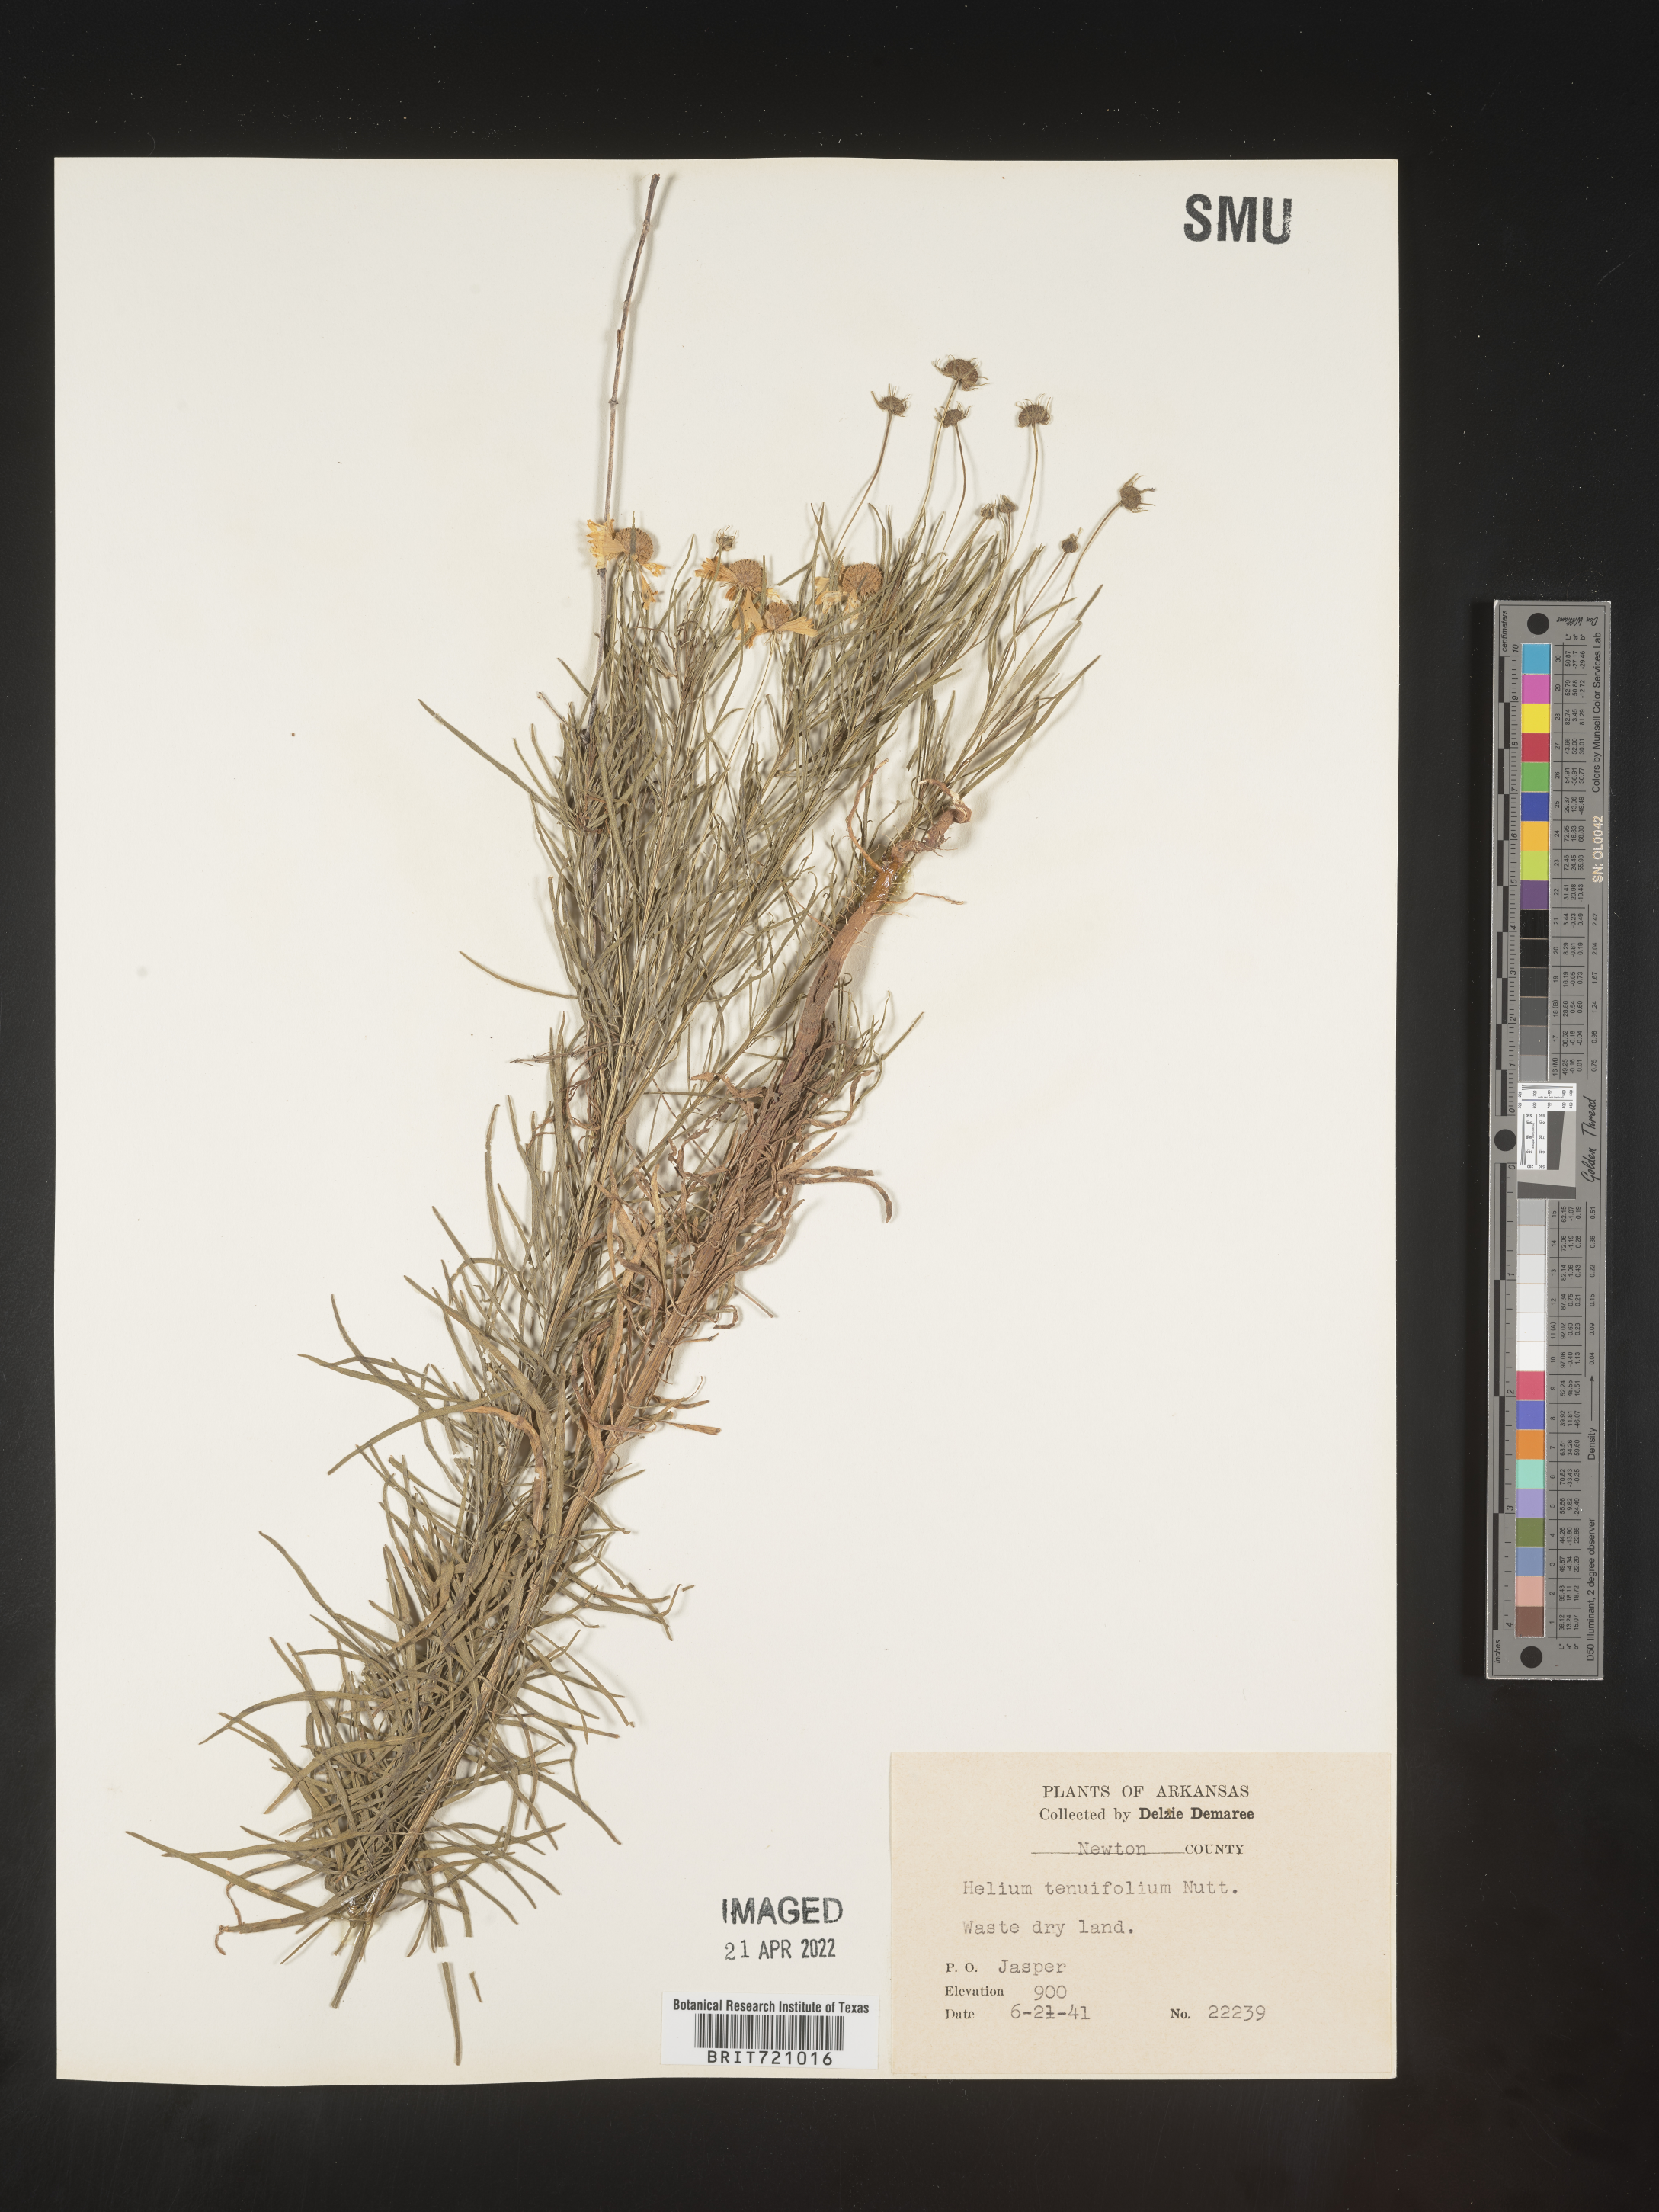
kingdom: Plantae
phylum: Tracheophyta
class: Magnoliopsida
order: Asterales
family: Asteraceae
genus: Helenium
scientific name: Helenium amarum
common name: Bitter sneezeweed
